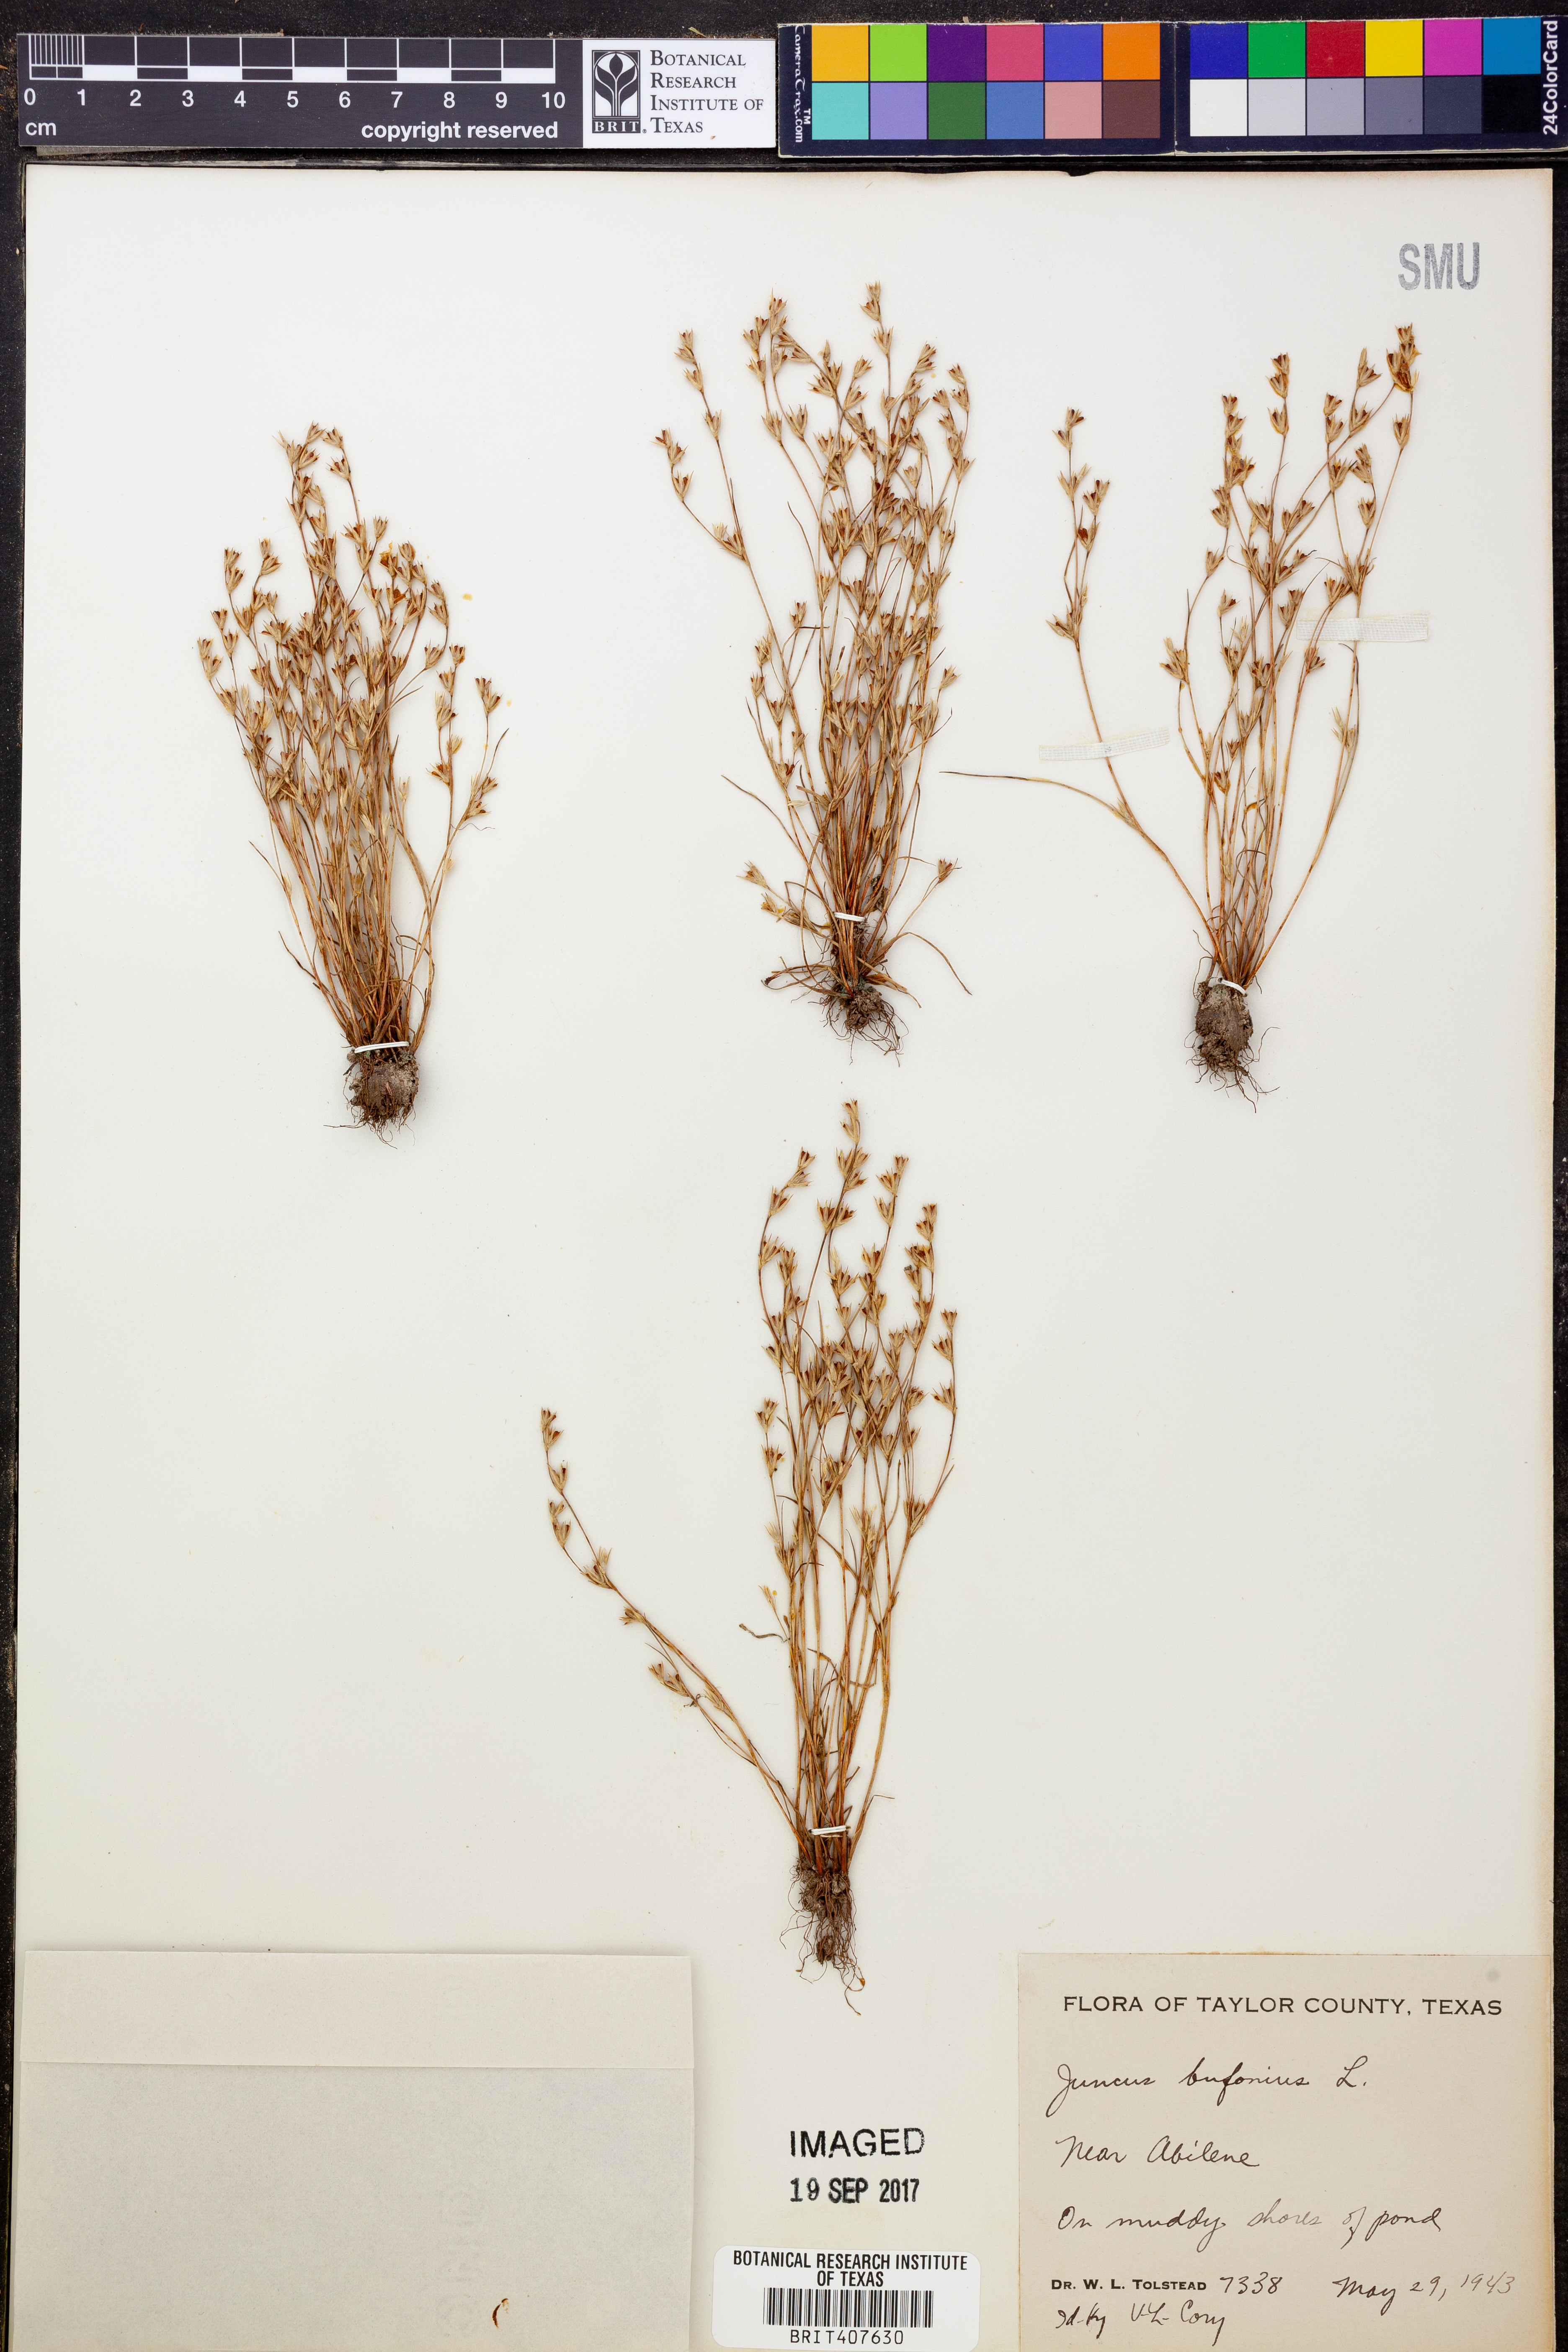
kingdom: Plantae
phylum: Tracheophyta
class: Liliopsida
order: Poales
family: Juncaceae
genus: Juncus
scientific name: Juncus bufonius
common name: Toad rush
